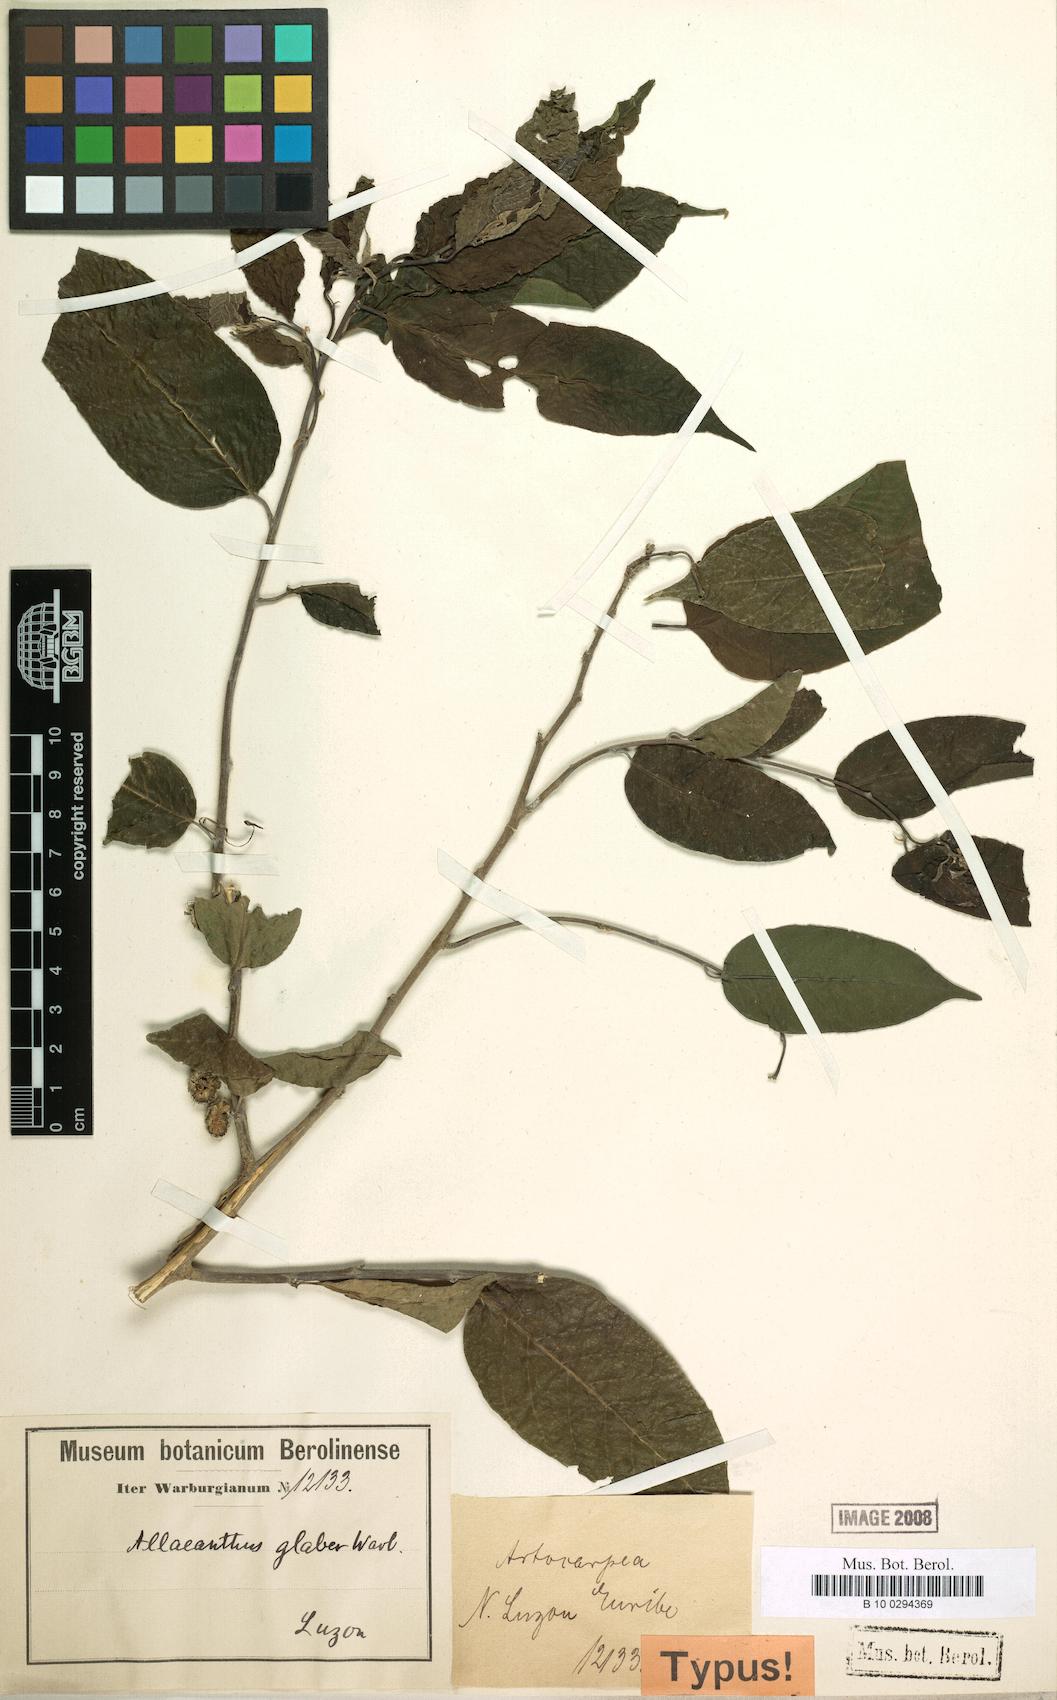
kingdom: Plantae
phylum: Tracheophyta
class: Magnoliopsida
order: Rosales
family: Moraceae
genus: Allaeanthus
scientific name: Allaeanthus luzonicus
